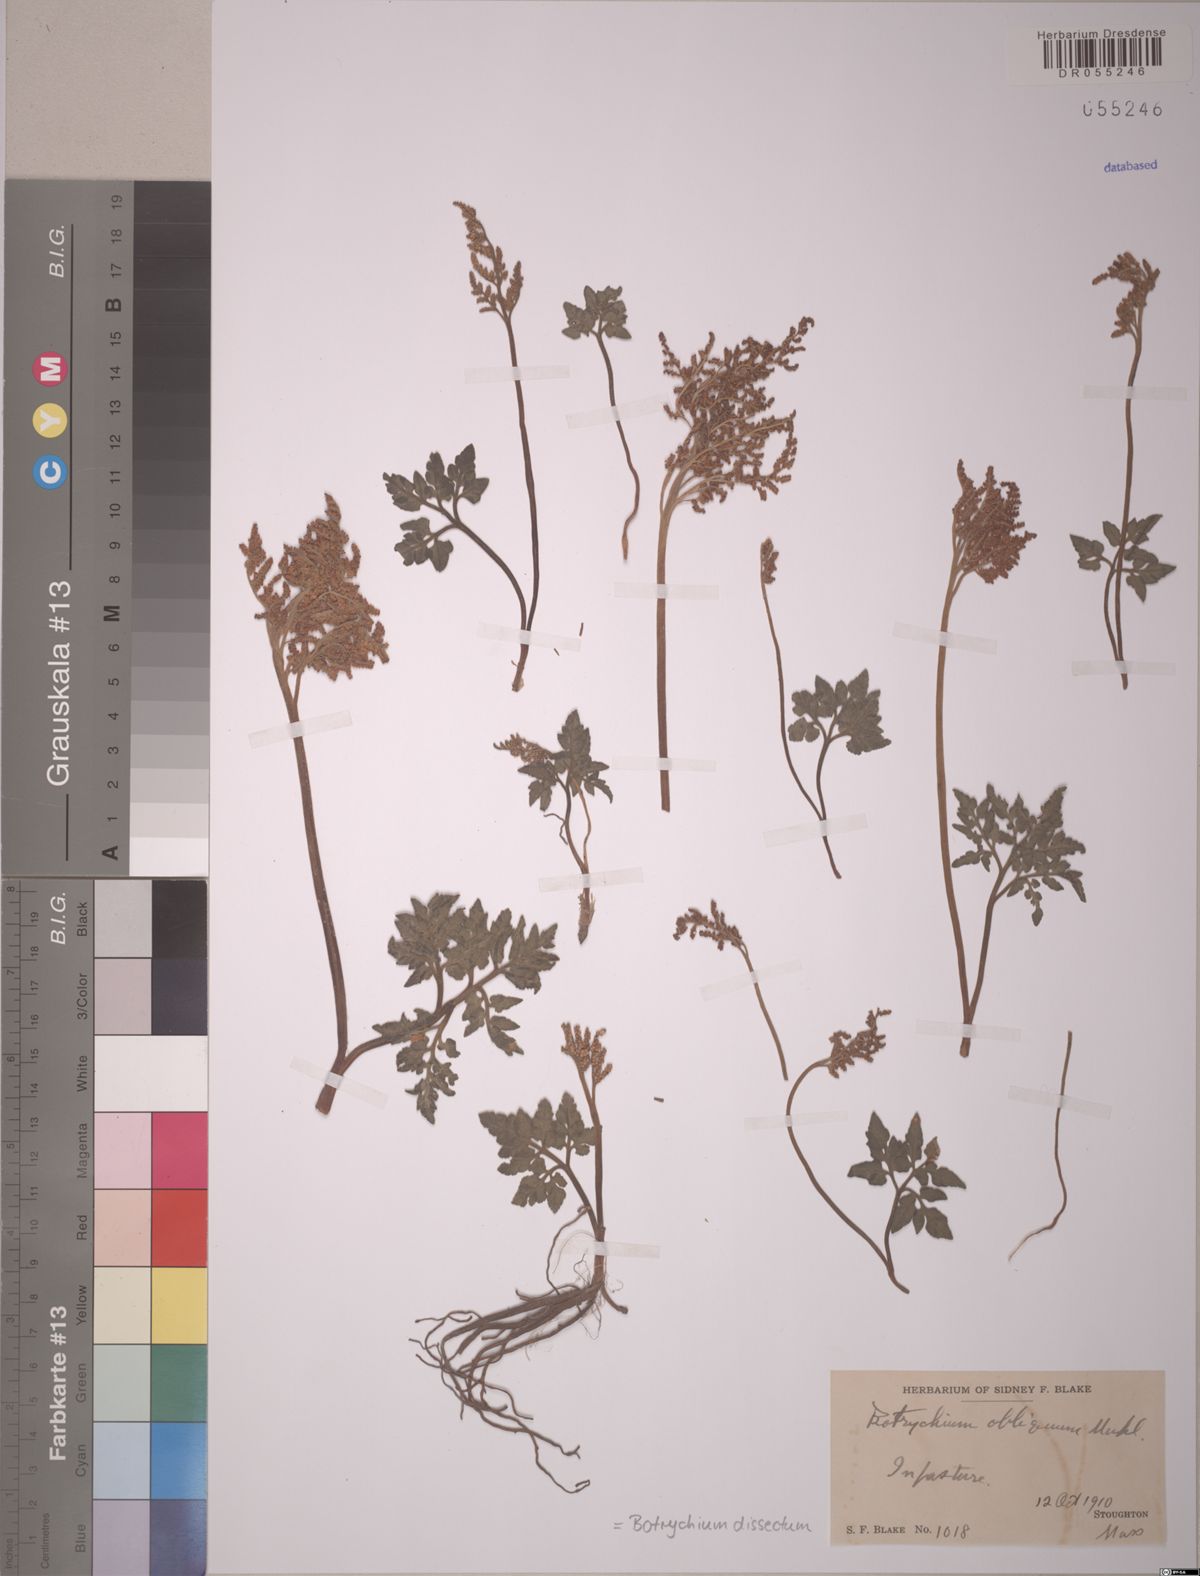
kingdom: Plantae
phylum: Tracheophyta
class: Polypodiopsida
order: Ophioglossales
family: Ophioglossaceae
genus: Sceptridium
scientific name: Sceptridium dissectum
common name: Cut-leaved grapefern
